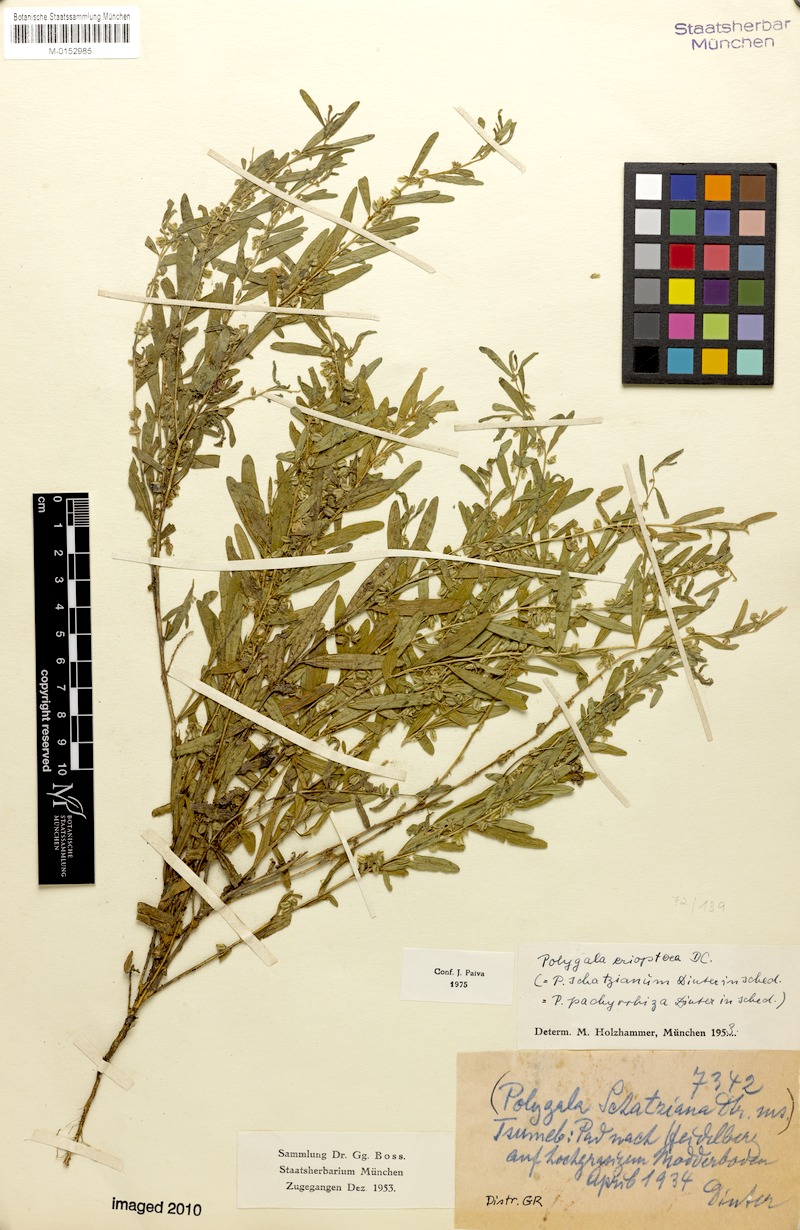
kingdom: Plantae
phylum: Tracheophyta
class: Magnoliopsida
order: Fabales
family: Polygalaceae
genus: Polygala
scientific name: Polygala erioptera
